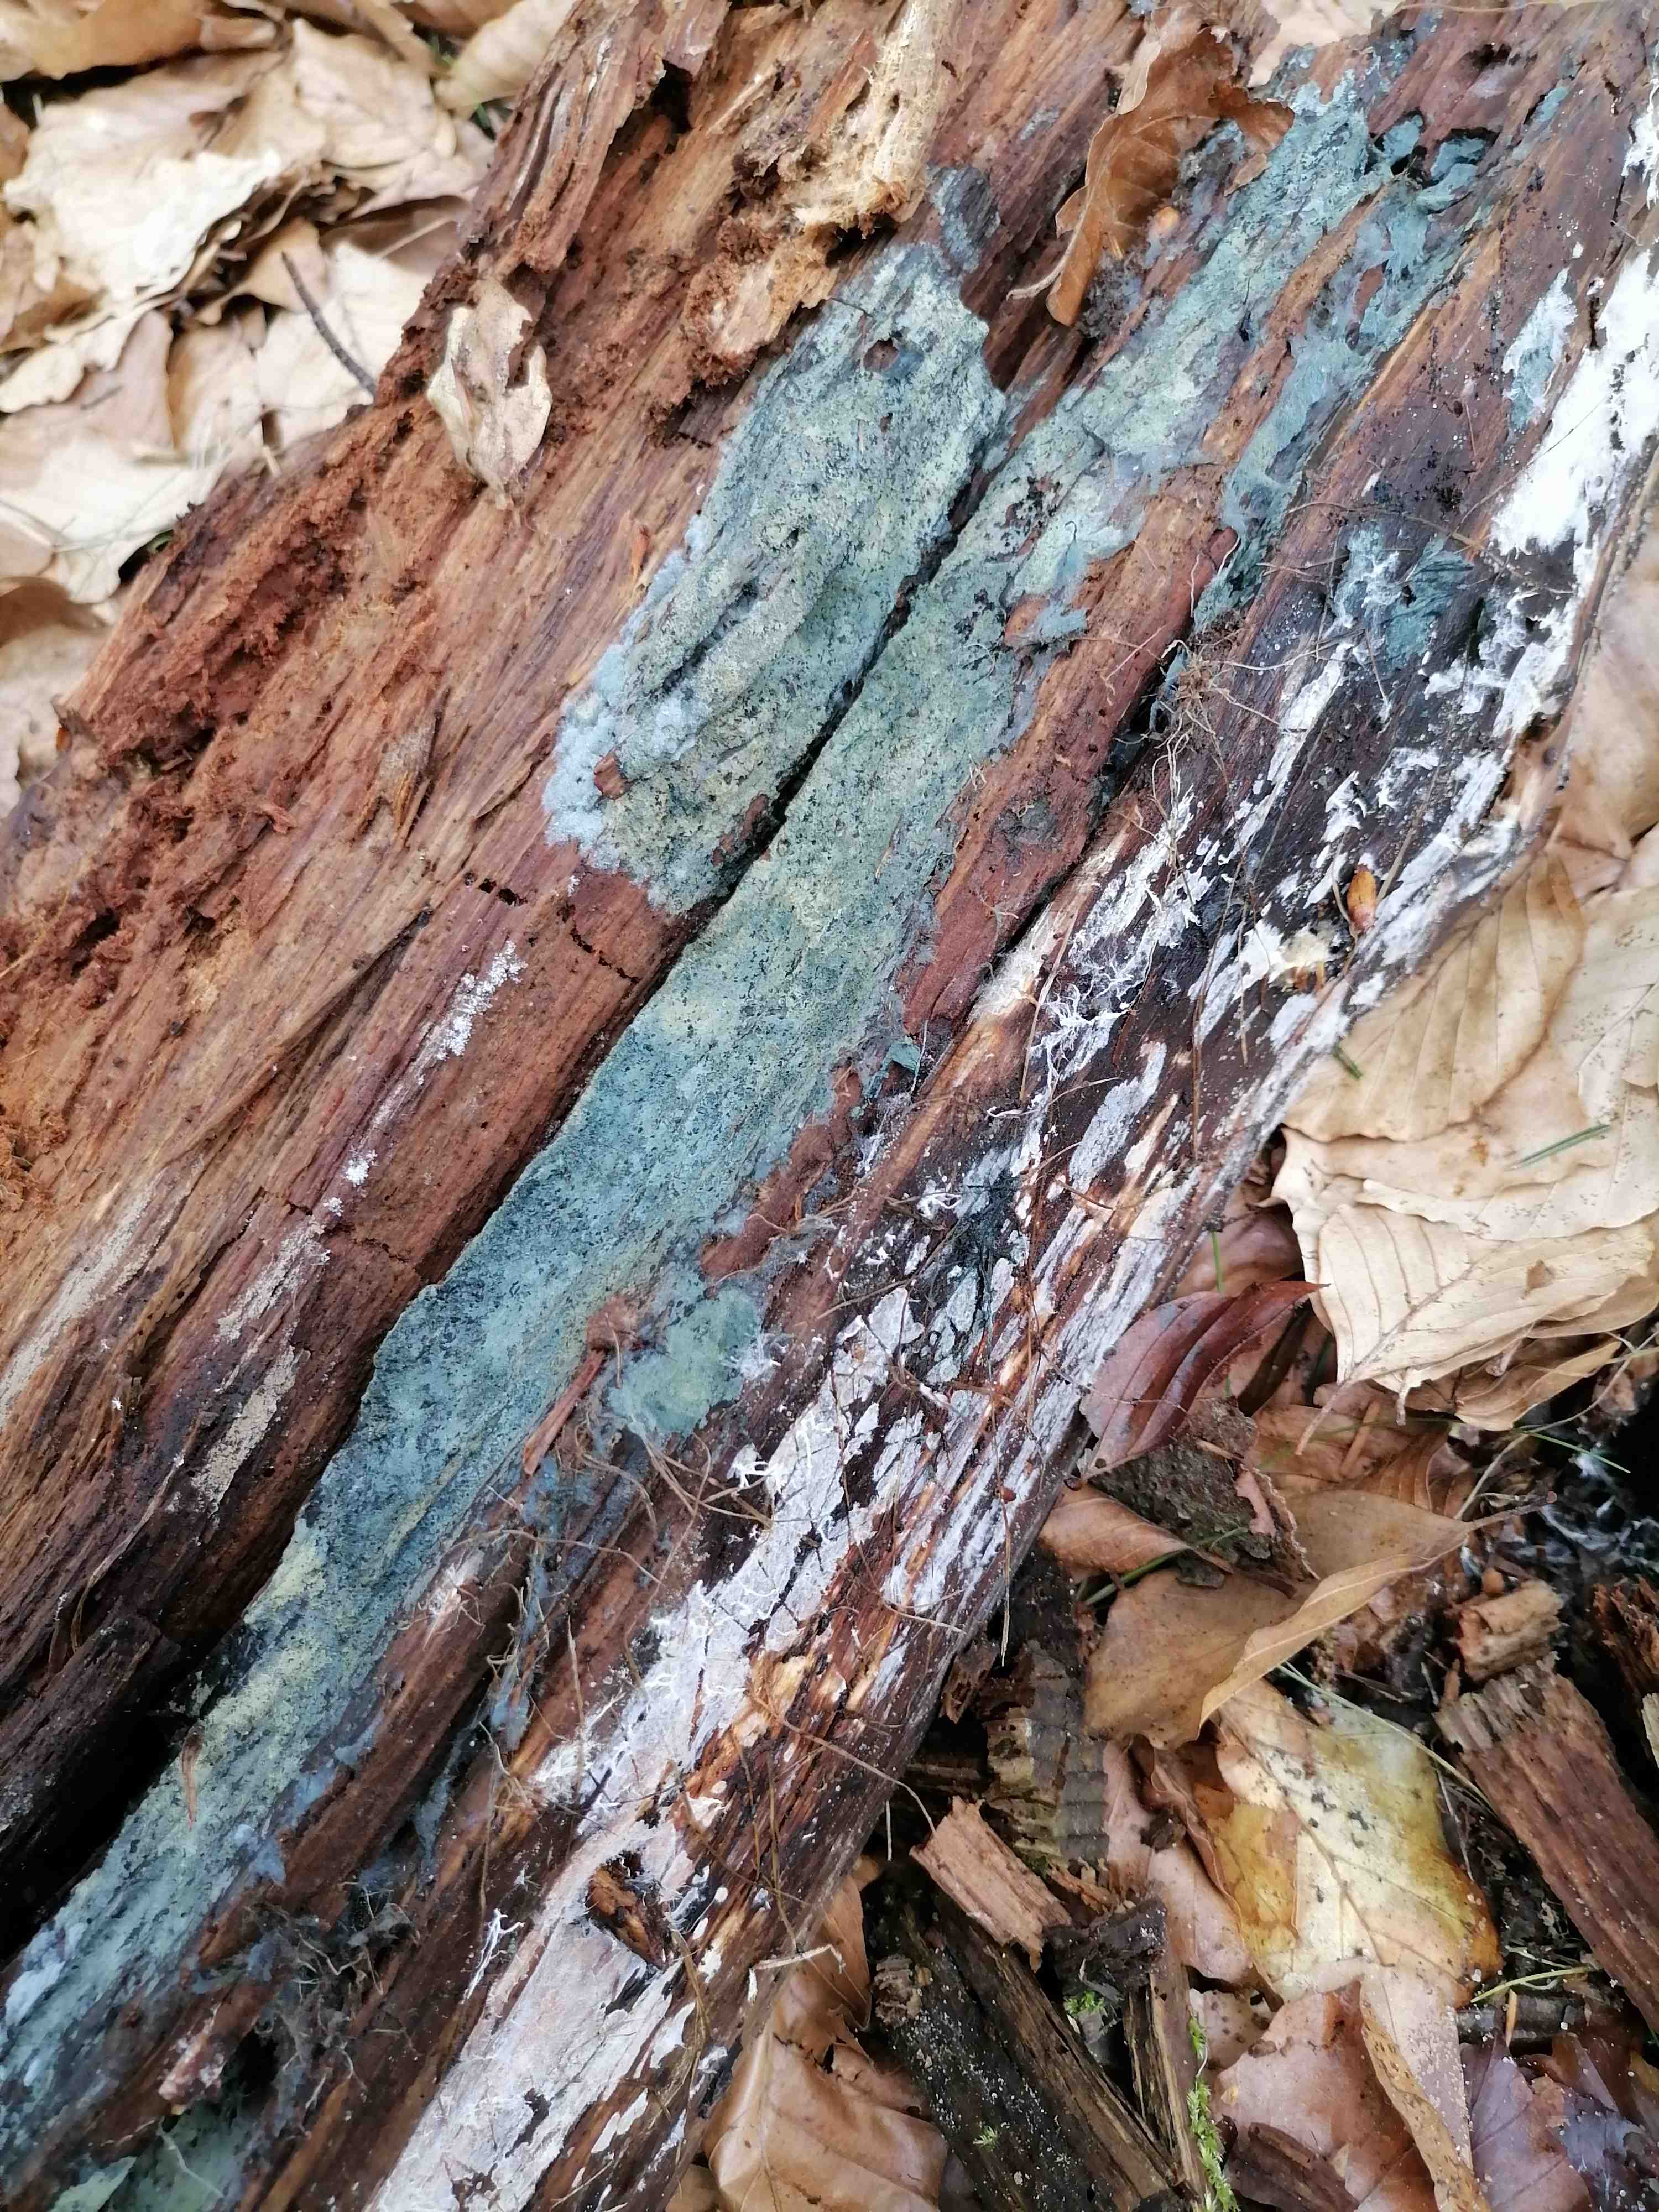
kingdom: Fungi
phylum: Basidiomycota
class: Agaricomycetes
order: Atheliales
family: Atheliaceae
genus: Byssocorticium
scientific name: Byssocorticium
